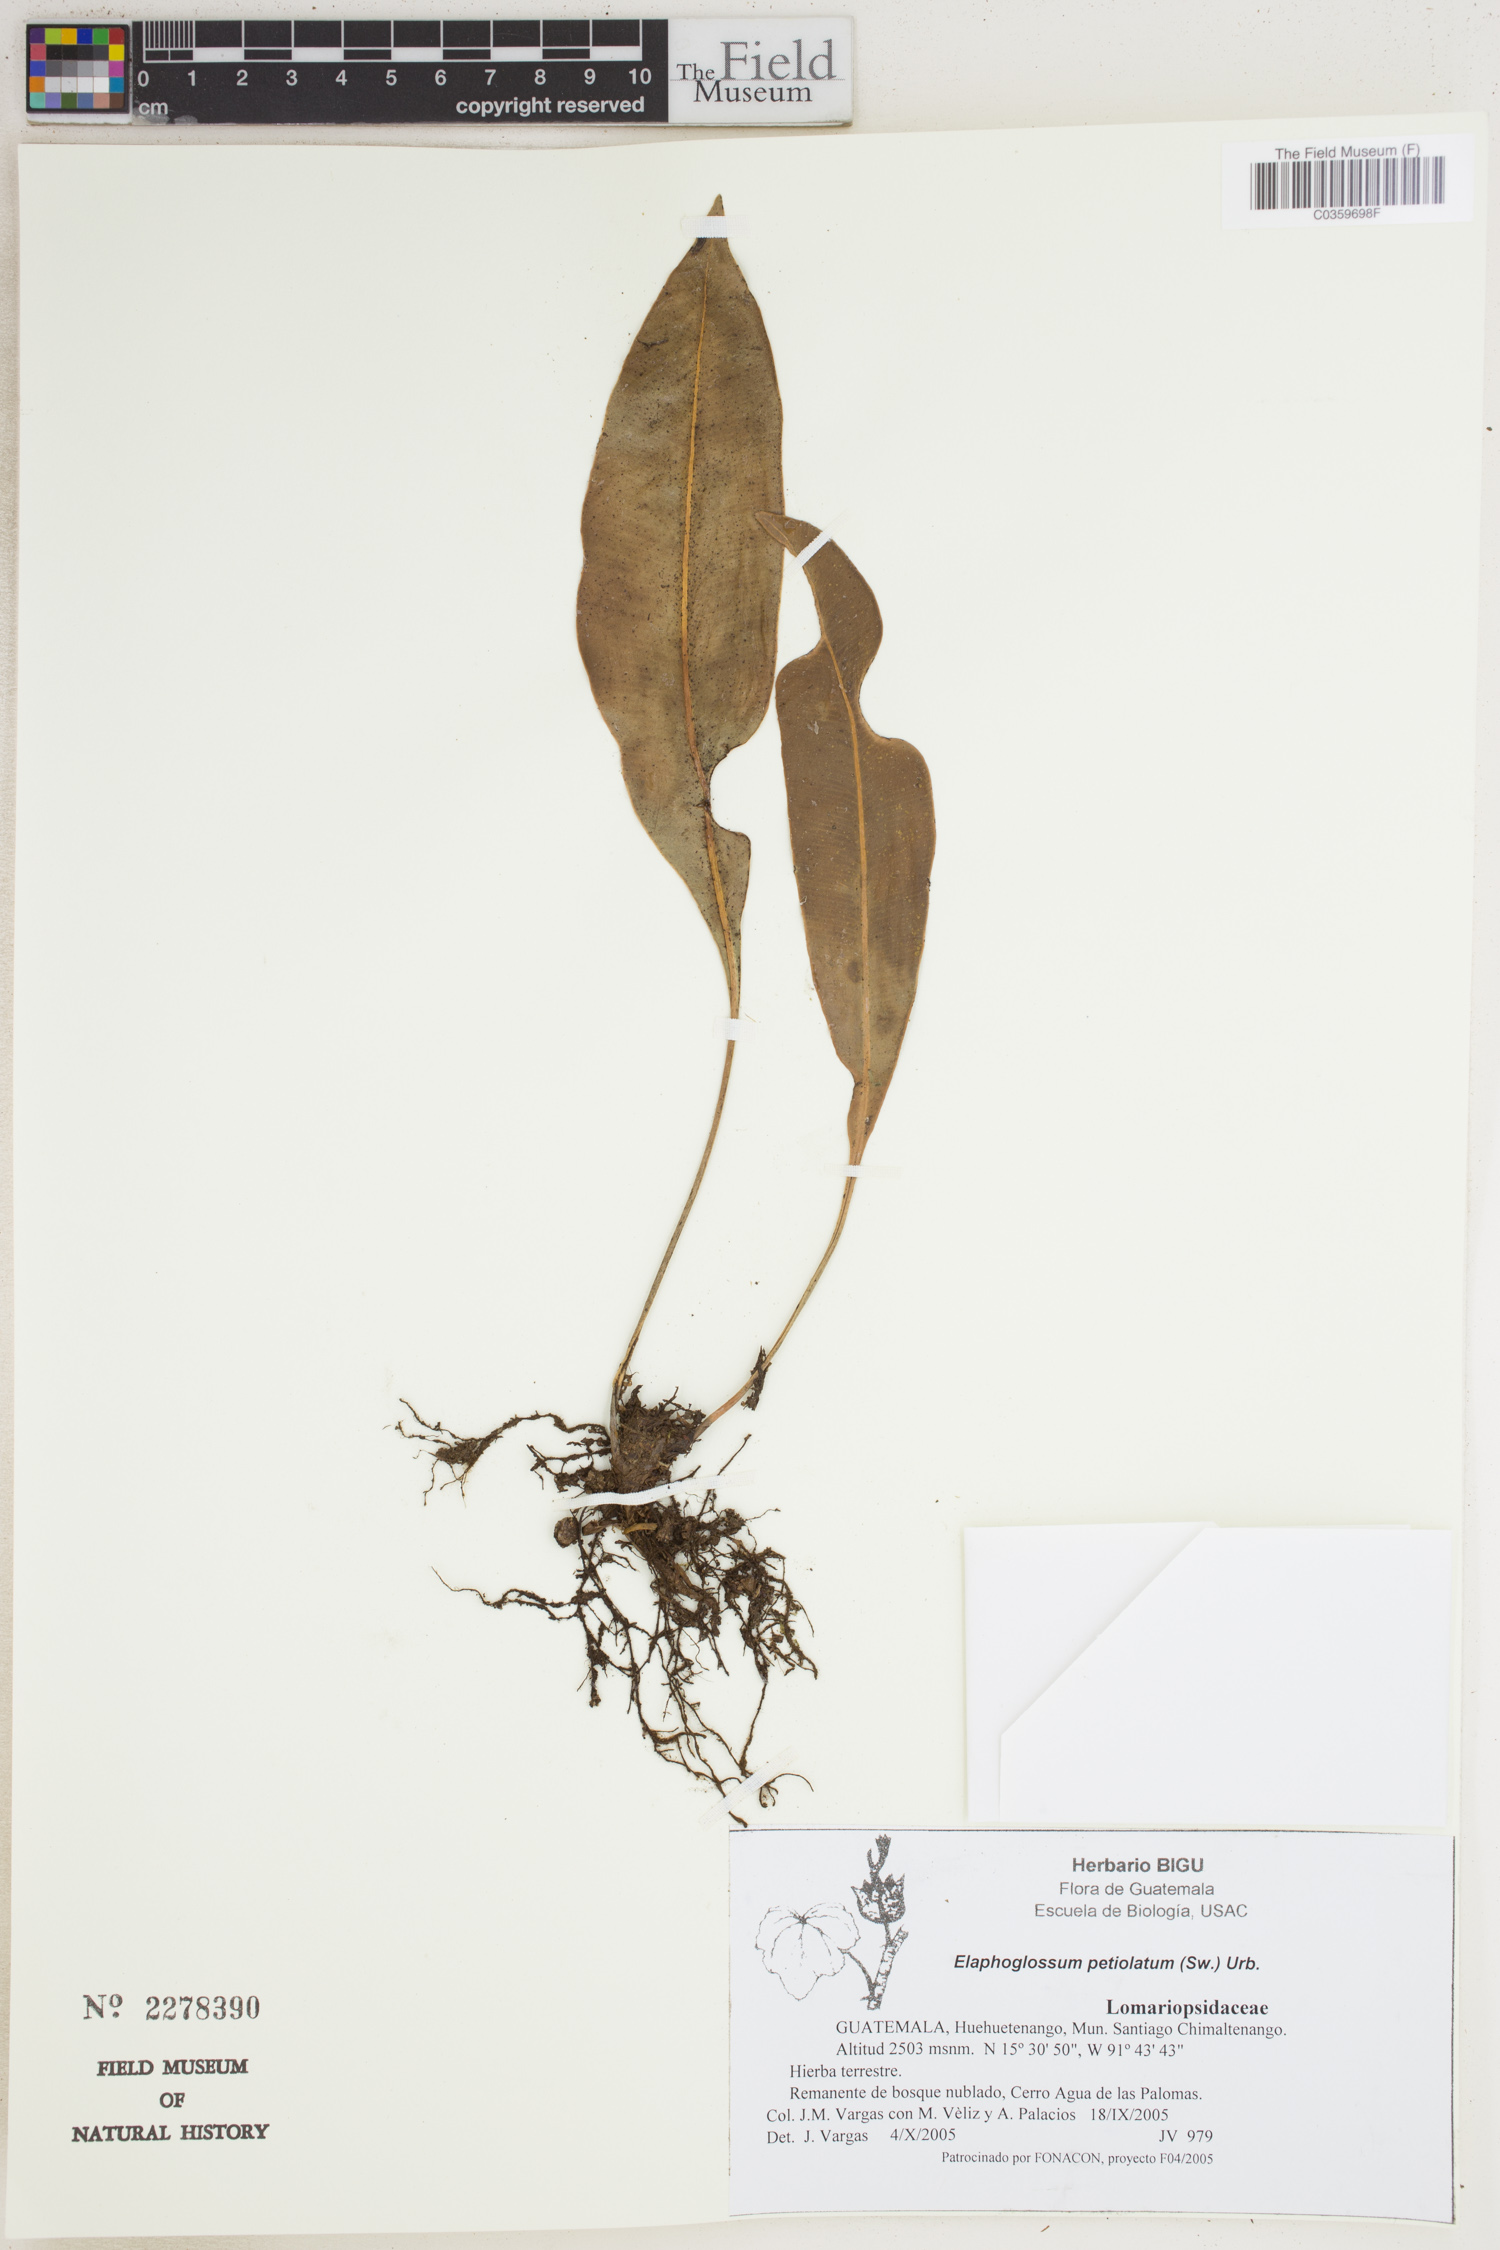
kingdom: Plantae
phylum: Tracheophyta
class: Polypodiopsida
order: Polypodiales
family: Dryopteridaceae
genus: Elaphoglossum
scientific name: Elaphoglossum petiolatum
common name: Graceful tonguefern
